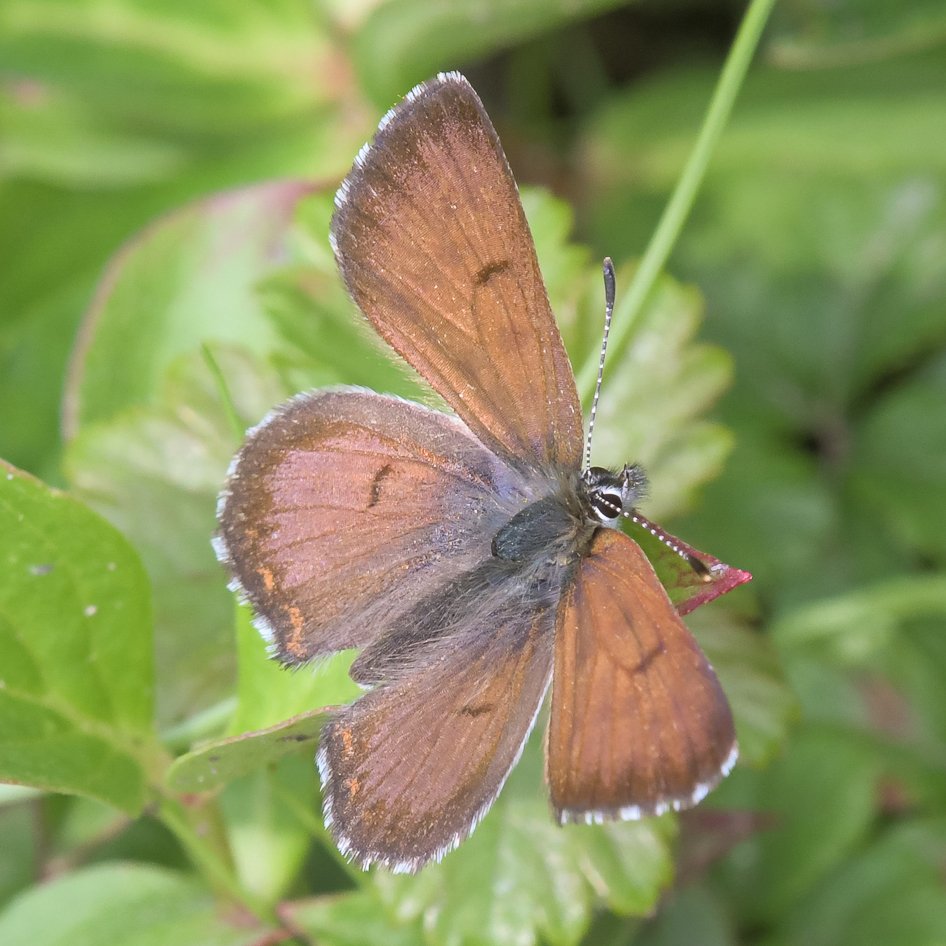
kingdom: Animalia
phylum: Arthropoda
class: Insecta
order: Lepidoptera
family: Lycaenidae
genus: Lycaena
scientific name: Lycaena mariposa
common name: Mariposa Copper
